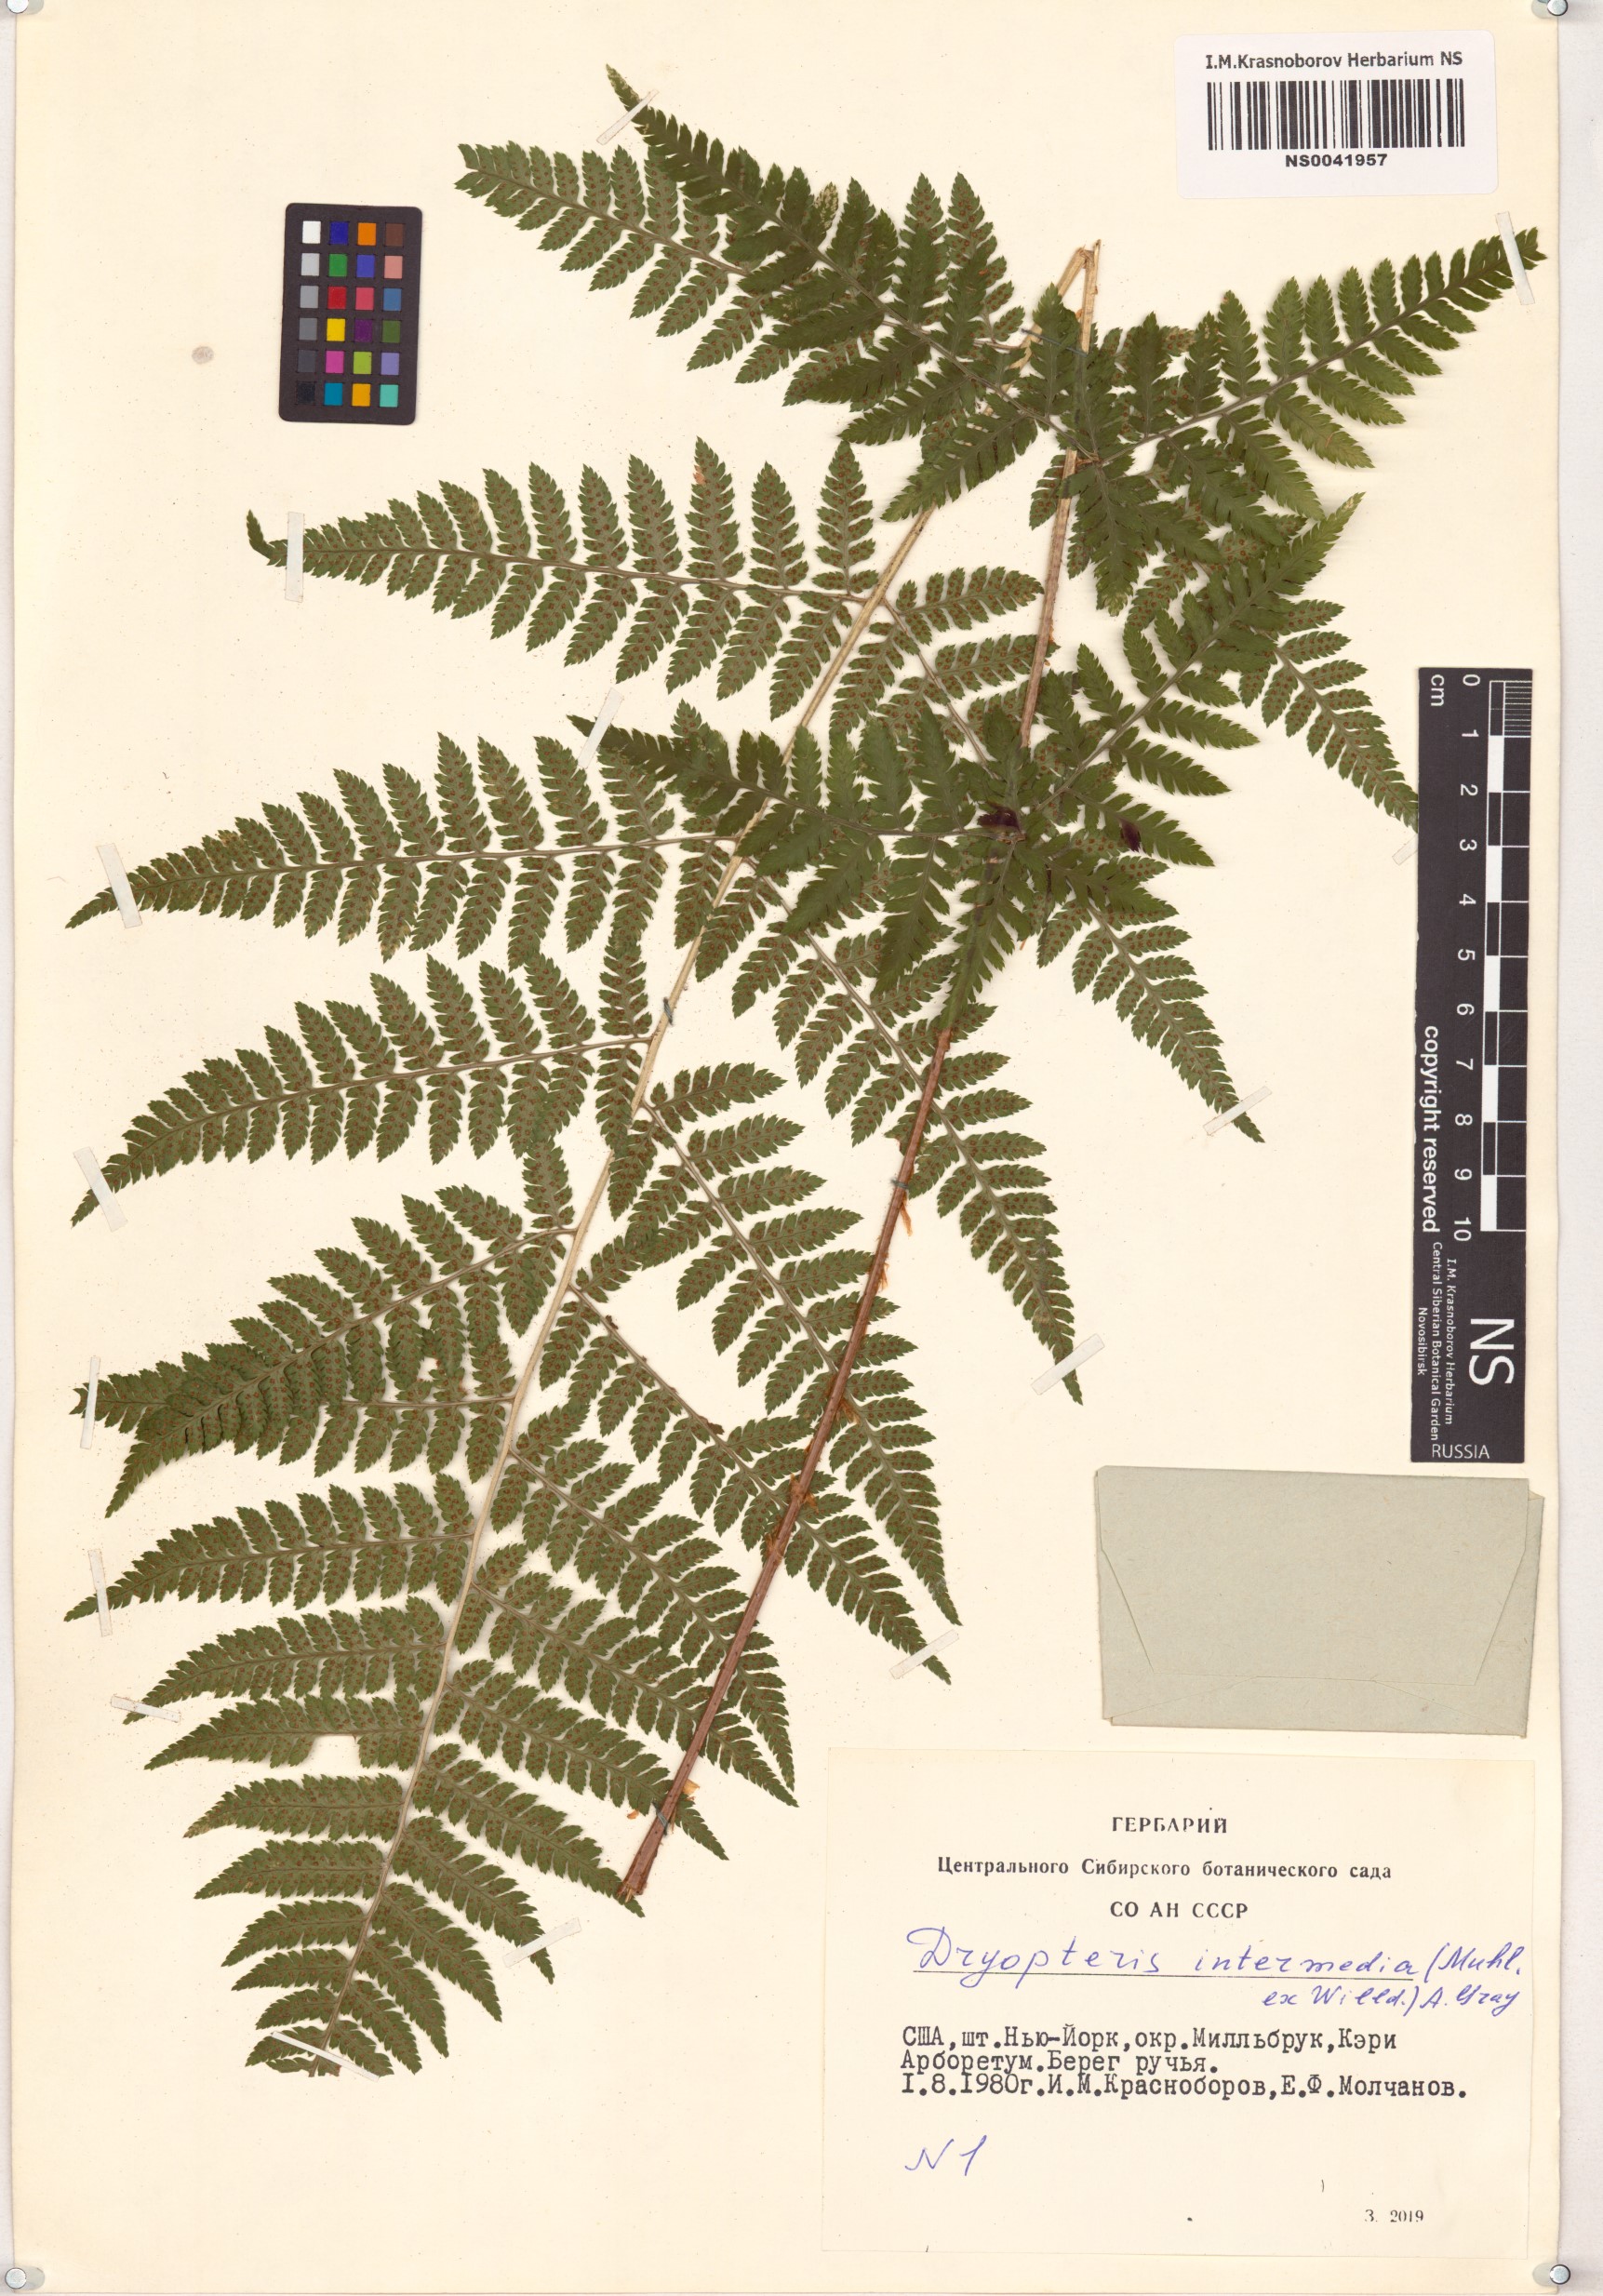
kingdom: Plantae
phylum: Tracheophyta
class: Polypodiopsida
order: Polypodiales
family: Dryopteridaceae
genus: Dryopteris
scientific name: Dryopteris intermedia
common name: Evergreen wood fern
